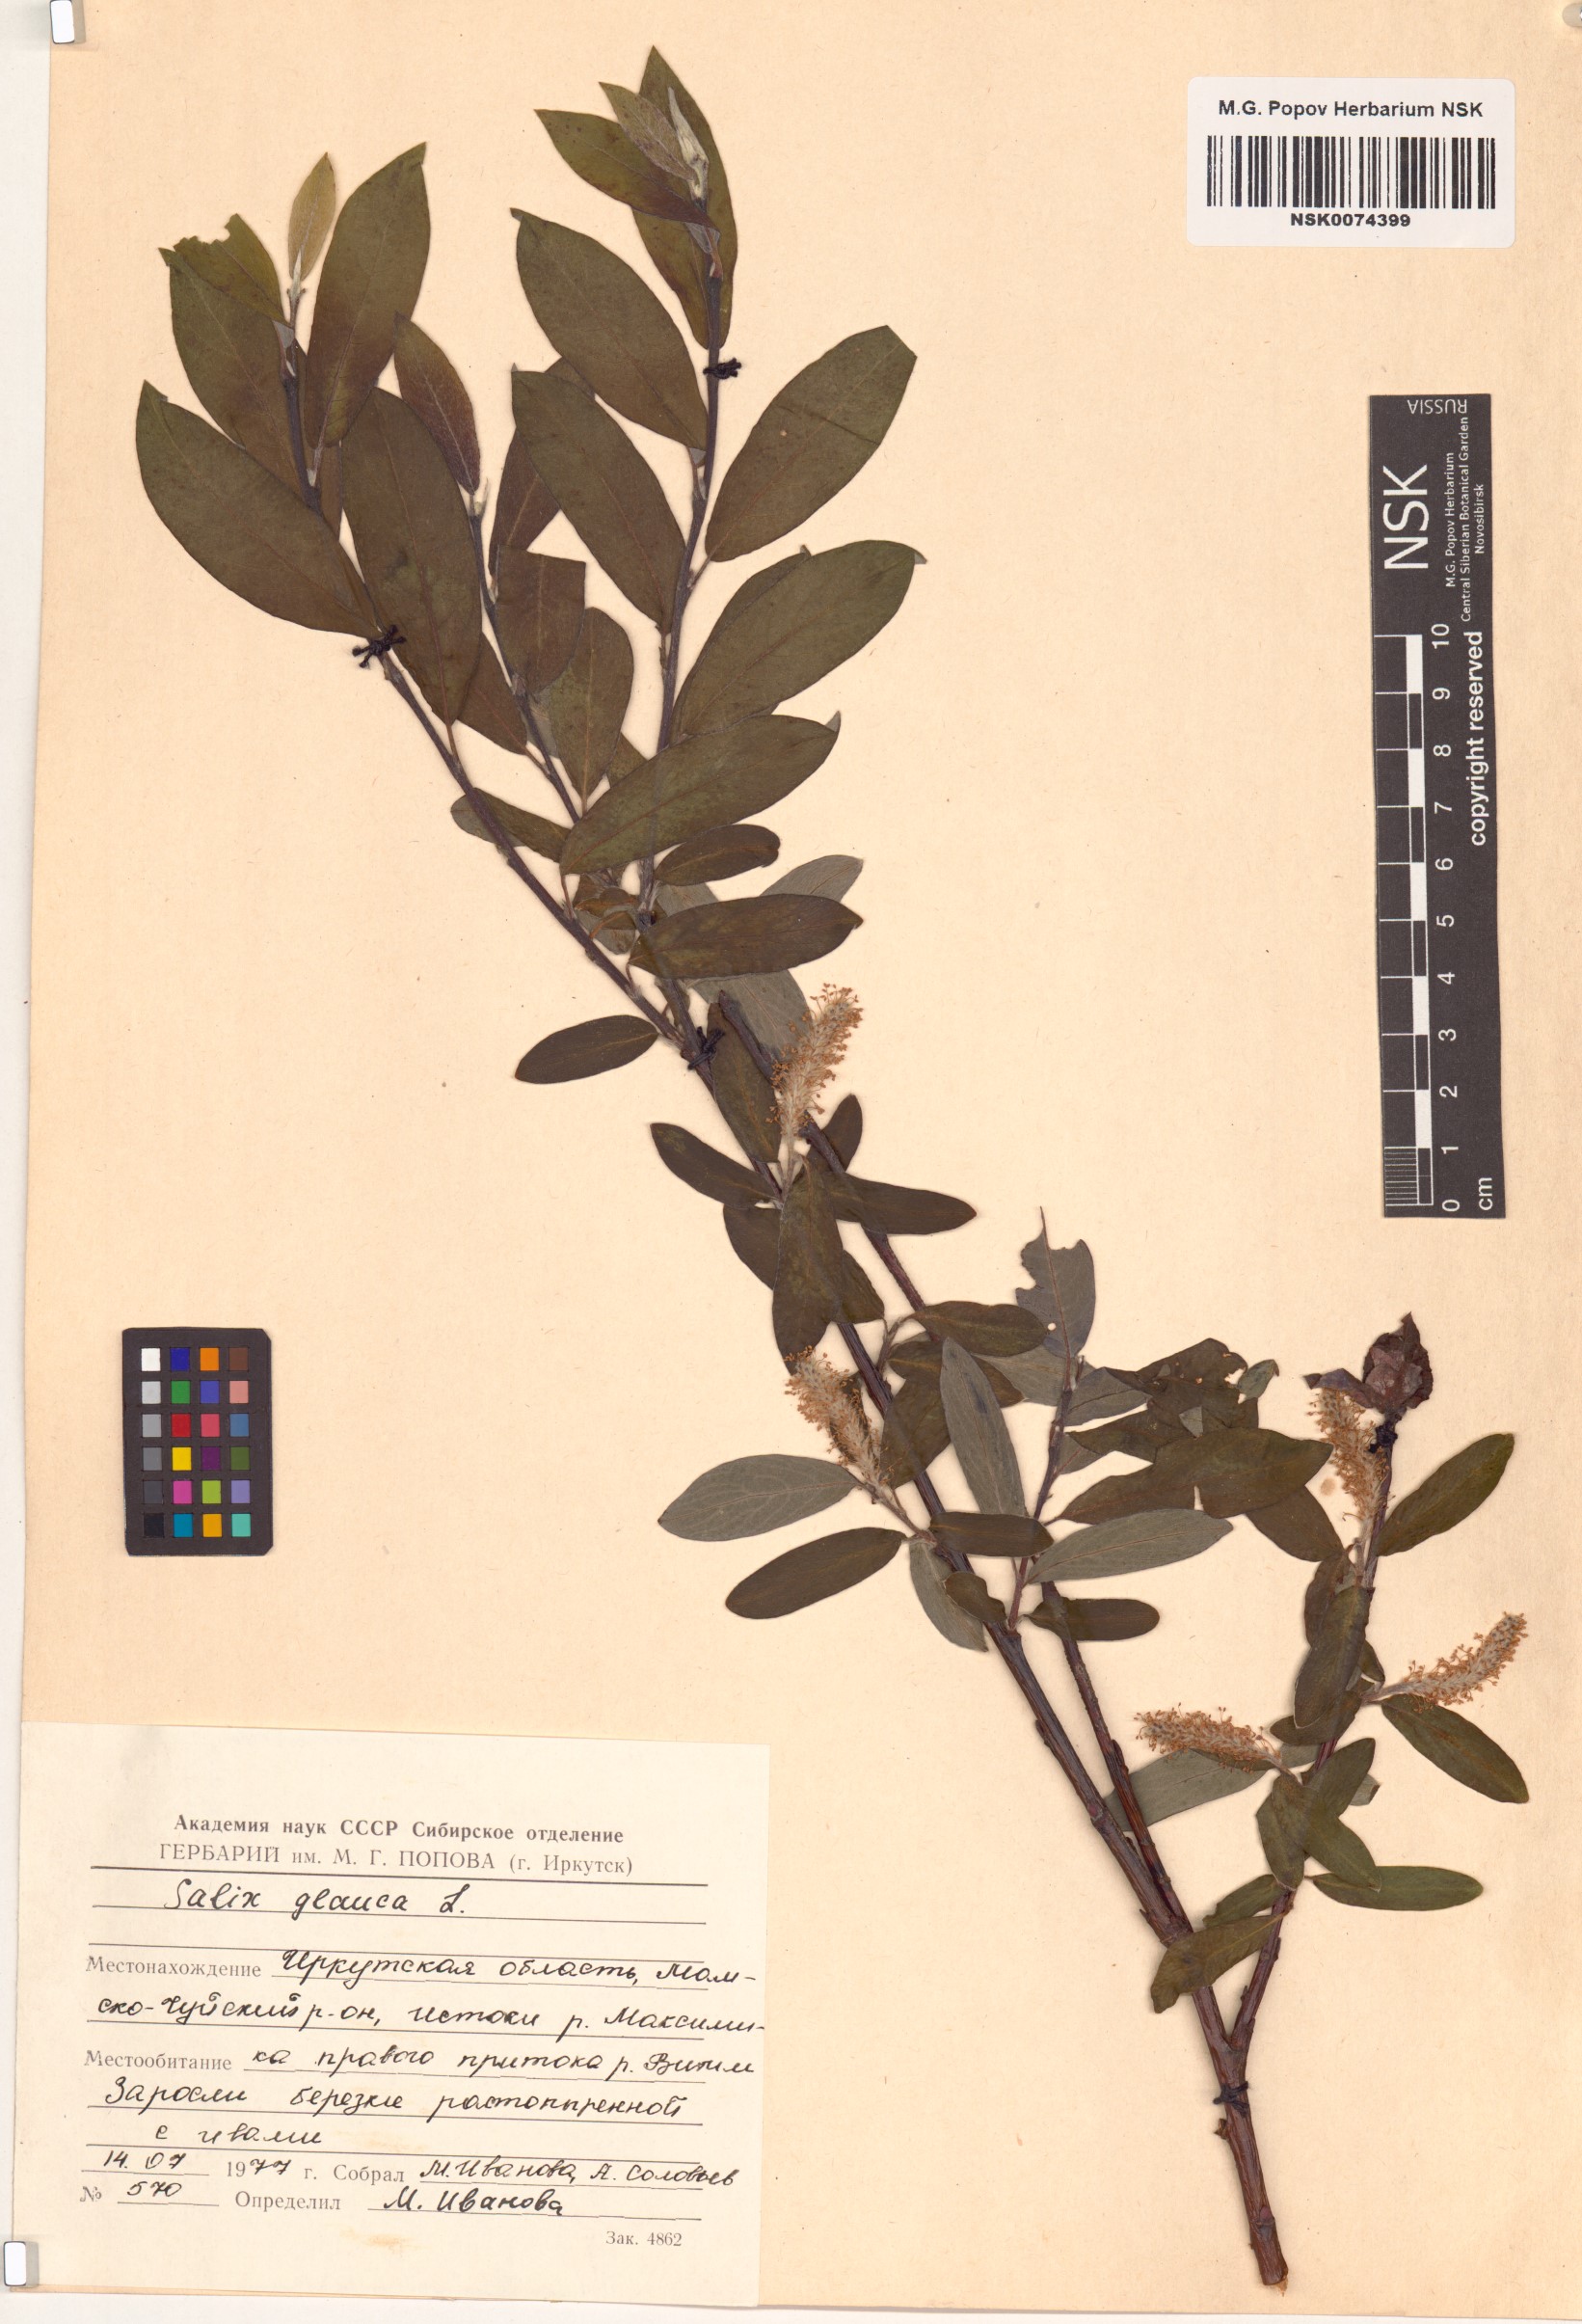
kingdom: Plantae
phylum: Tracheophyta
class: Magnoliopsida
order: Malpighiales
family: Salicaceae
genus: Salix
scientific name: Salix glauca
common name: Glaucous willow
